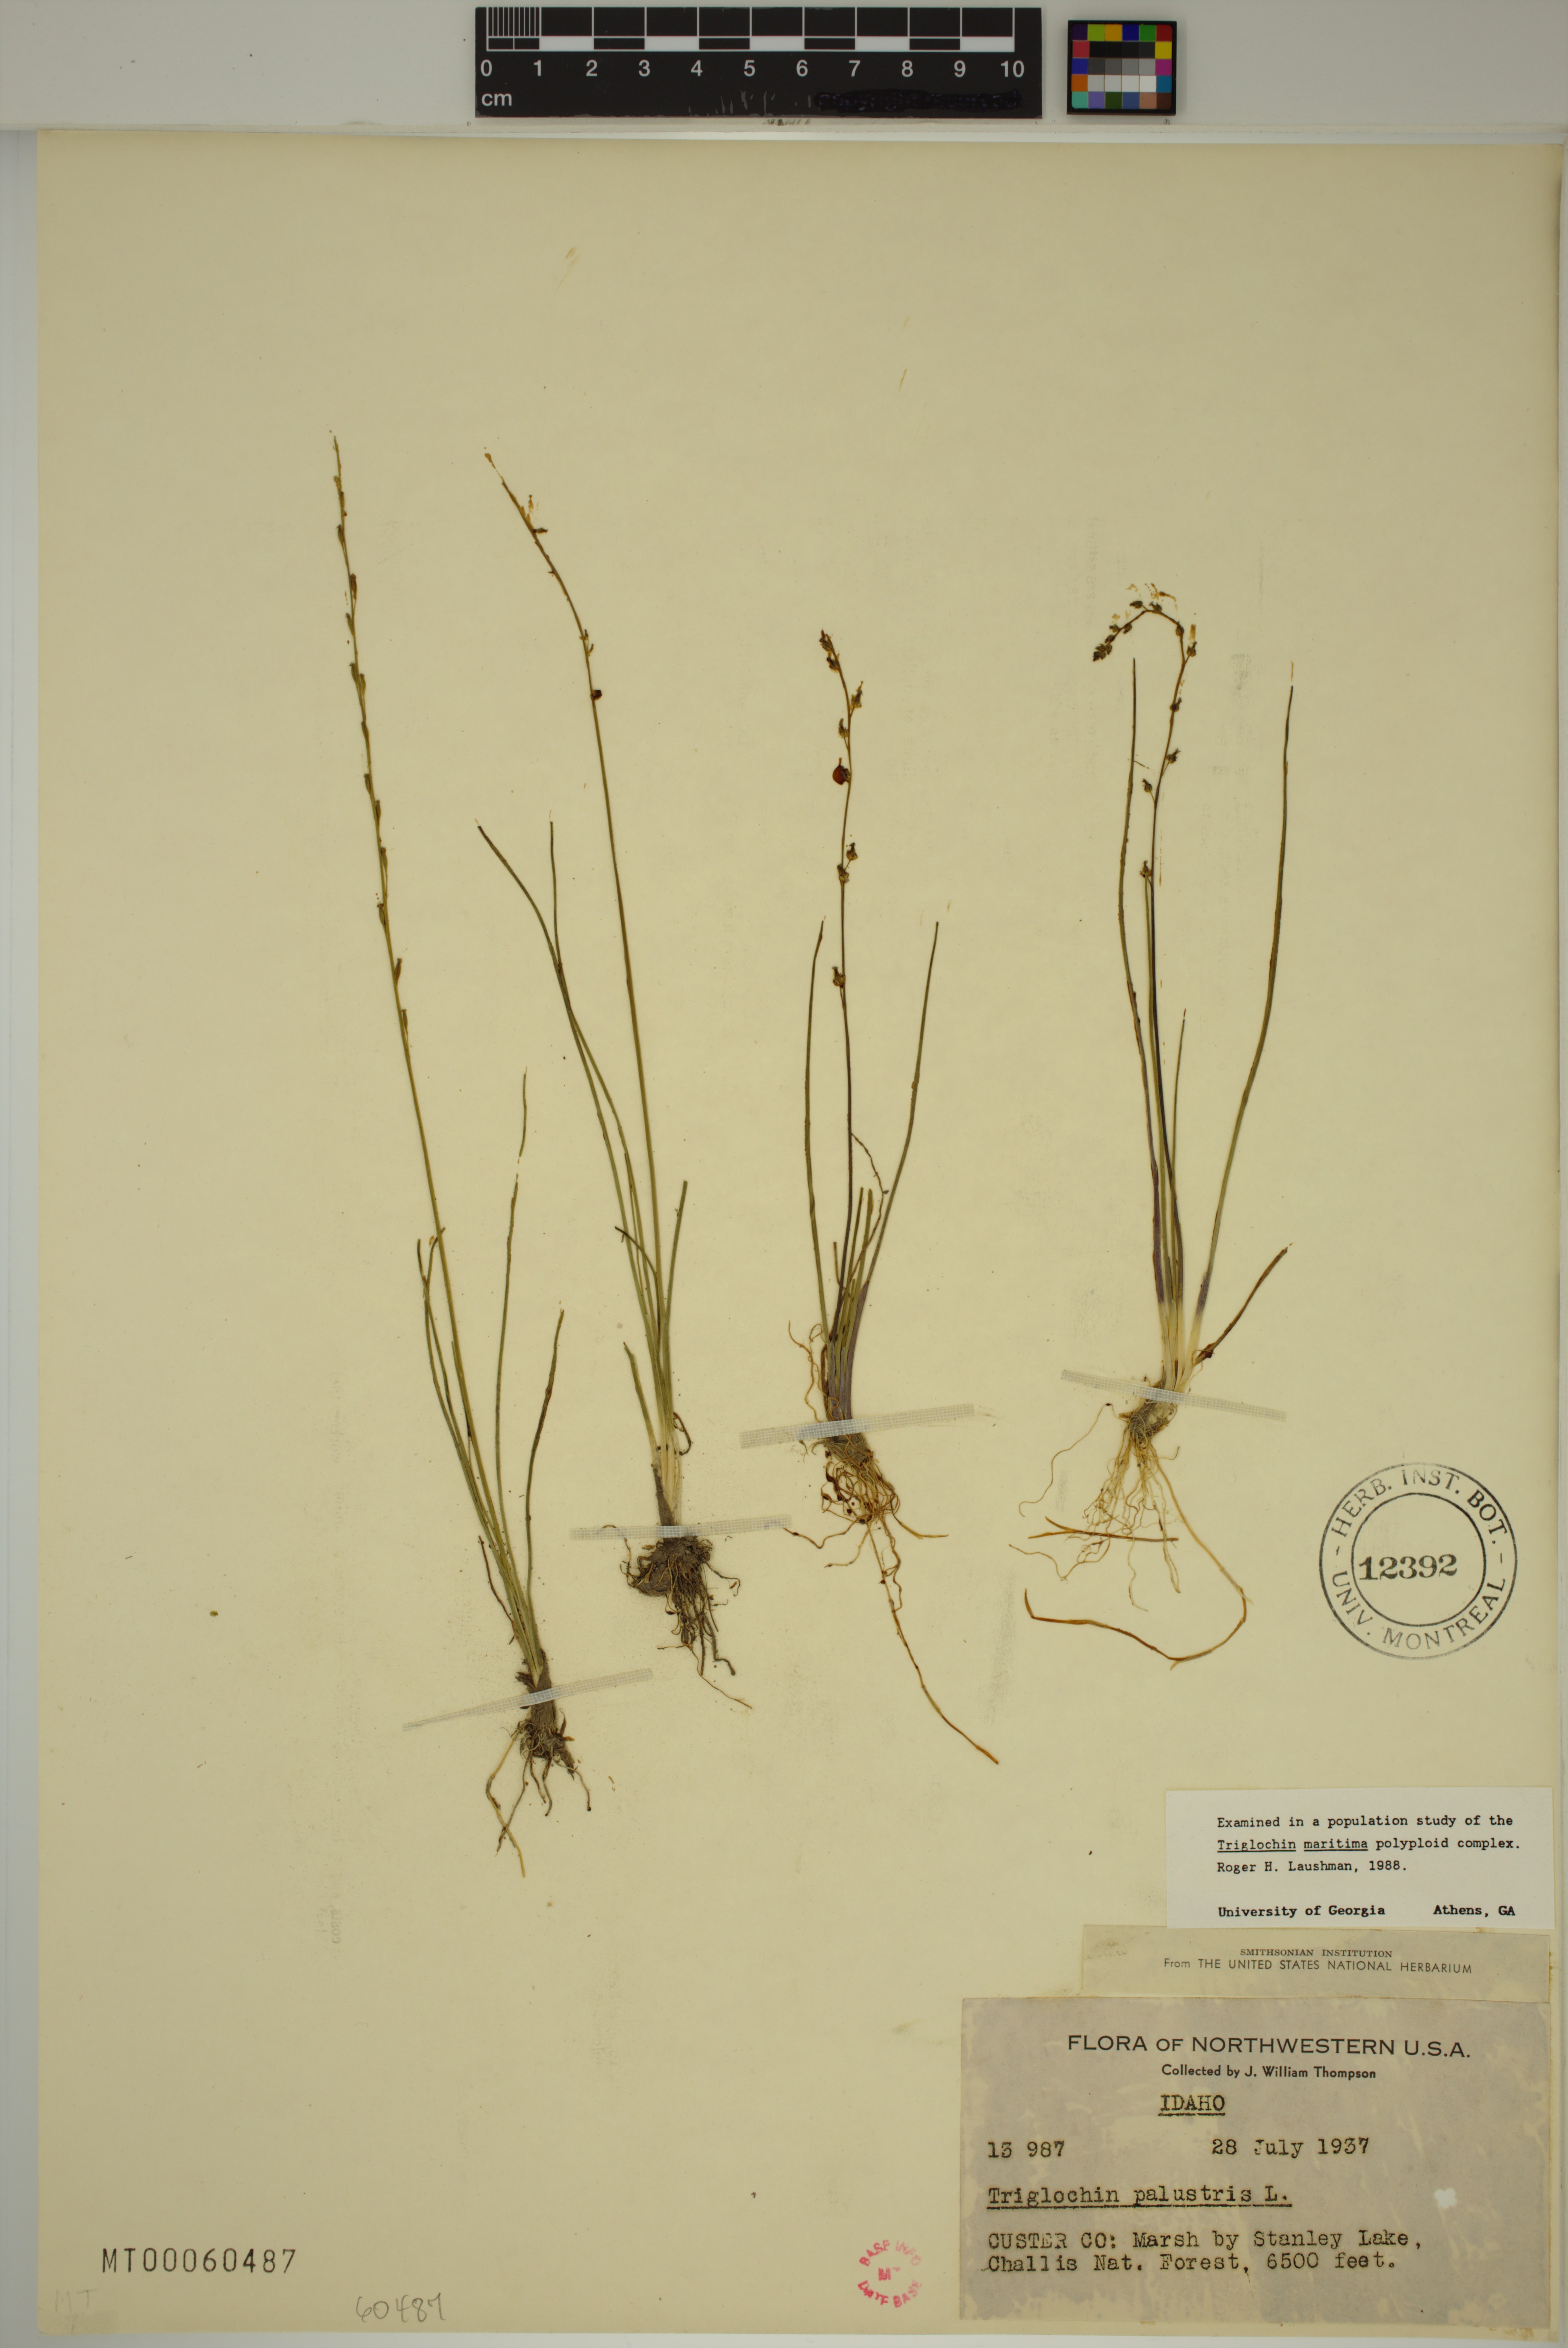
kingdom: Plantae
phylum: Tracheophyta
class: Liliopsida
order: Alismatales
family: Juncaginaceae
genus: Triglochin
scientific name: Triglochin palustris
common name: Marsh arrowgrass
